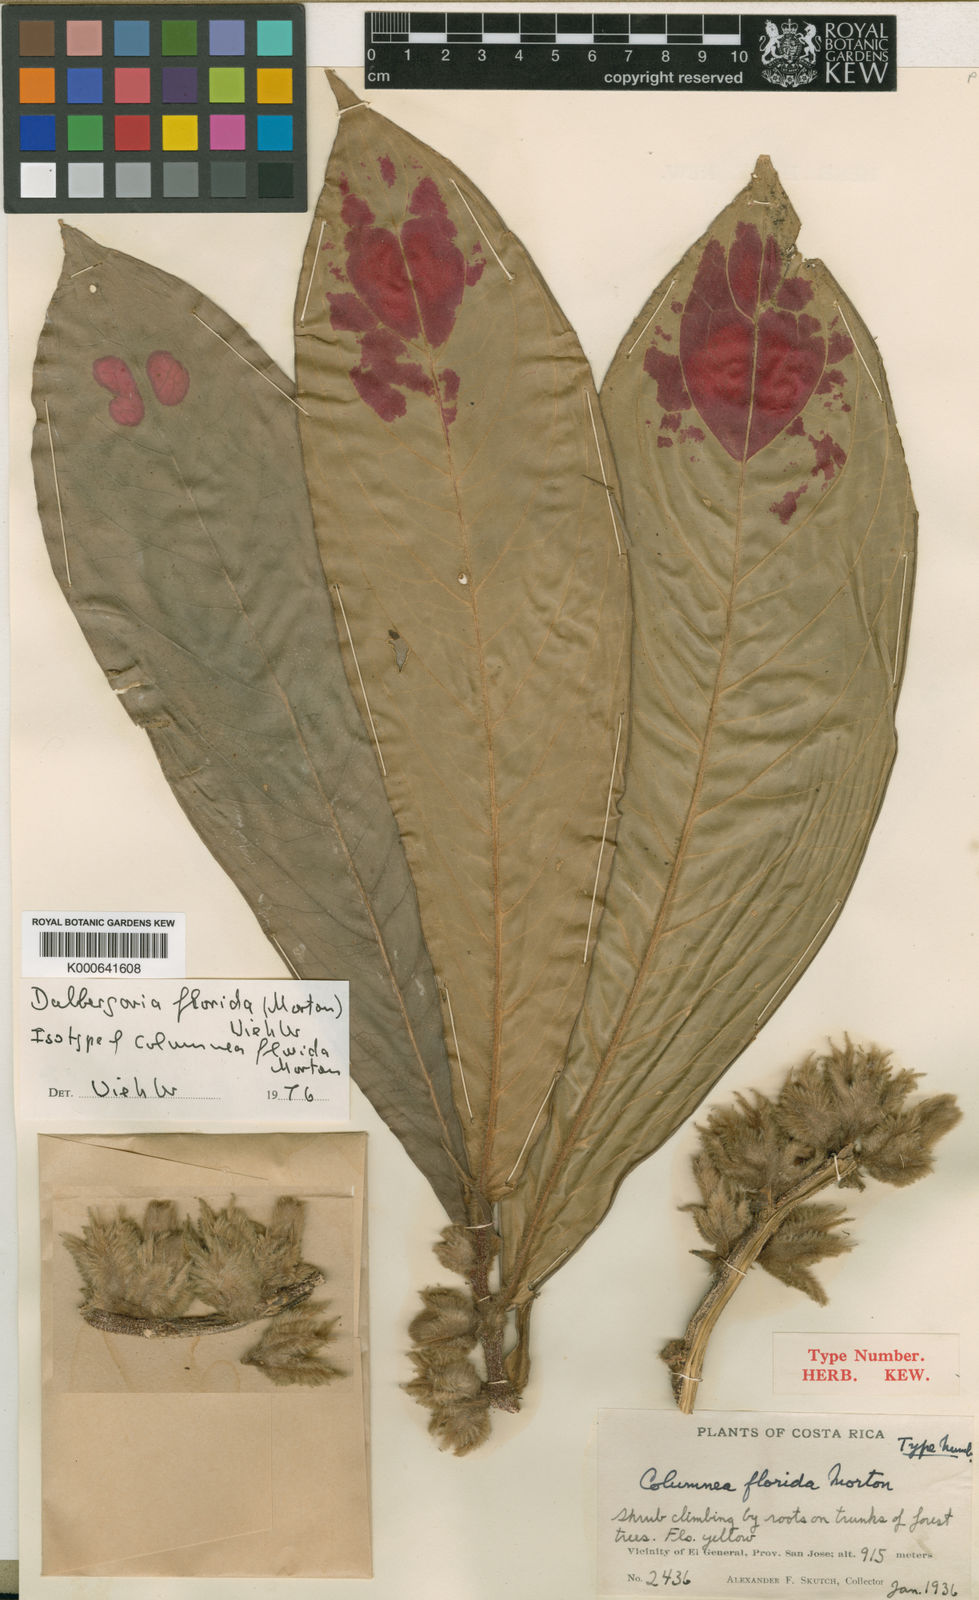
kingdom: Plantae
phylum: Tracheophyta
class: Magnoliopsida
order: Lamiales
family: Gesneriaceae
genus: Columnea
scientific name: Columnea florida
